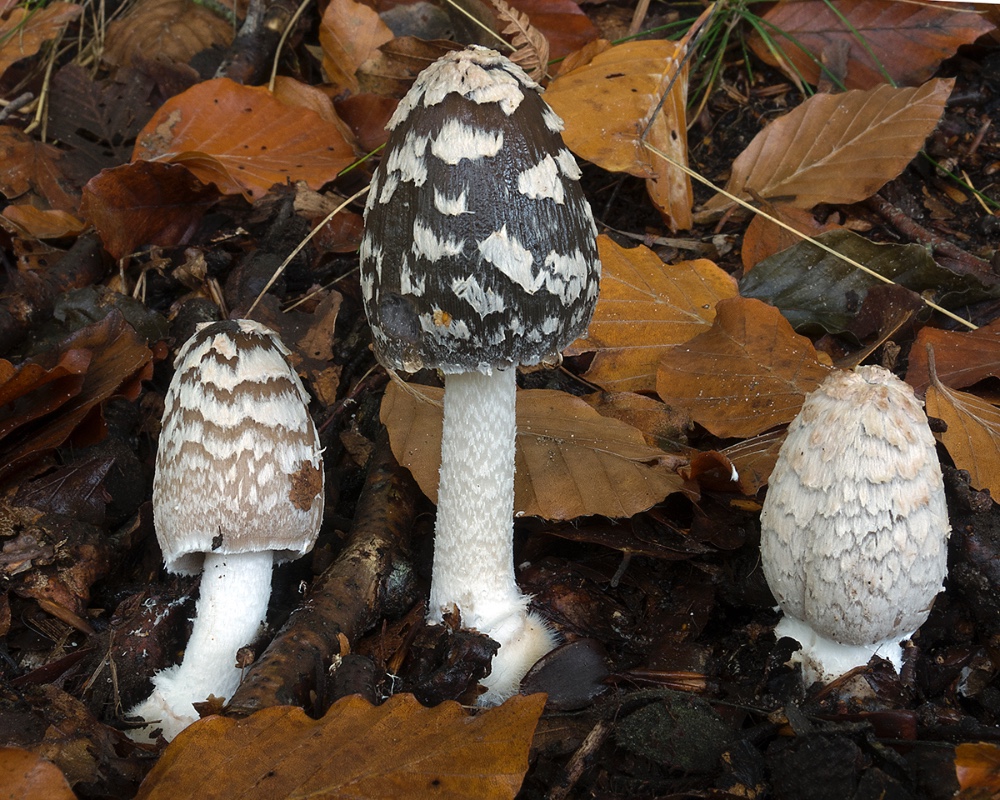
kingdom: Fungi
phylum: Basidiomycota
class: Agaricomycetes
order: Agaricales
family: Psathyrellaceae
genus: Coprinopsis
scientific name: Coprinopsis picacea
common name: skade-blækhat
